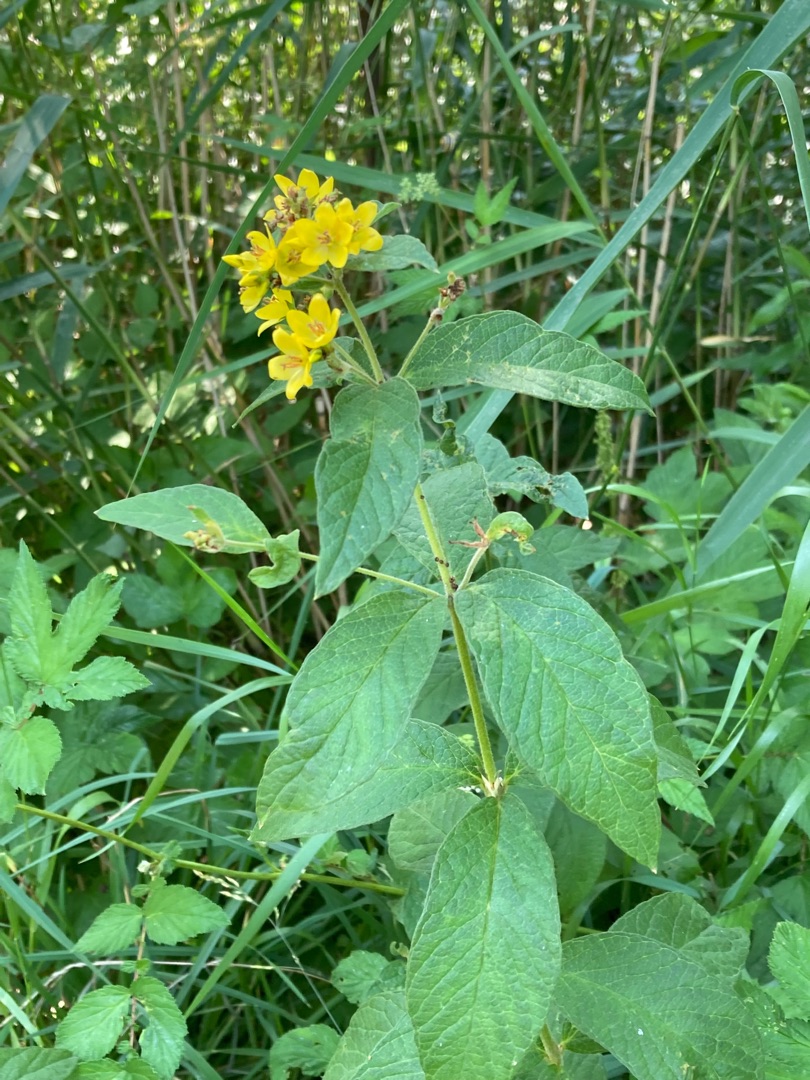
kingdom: Plantae
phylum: Tracheophyta
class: Magnoliopsida
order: Ericales
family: Primulaceae
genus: Lysimachia
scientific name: Lysimachia vulgaris
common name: Almindelig fredløs
